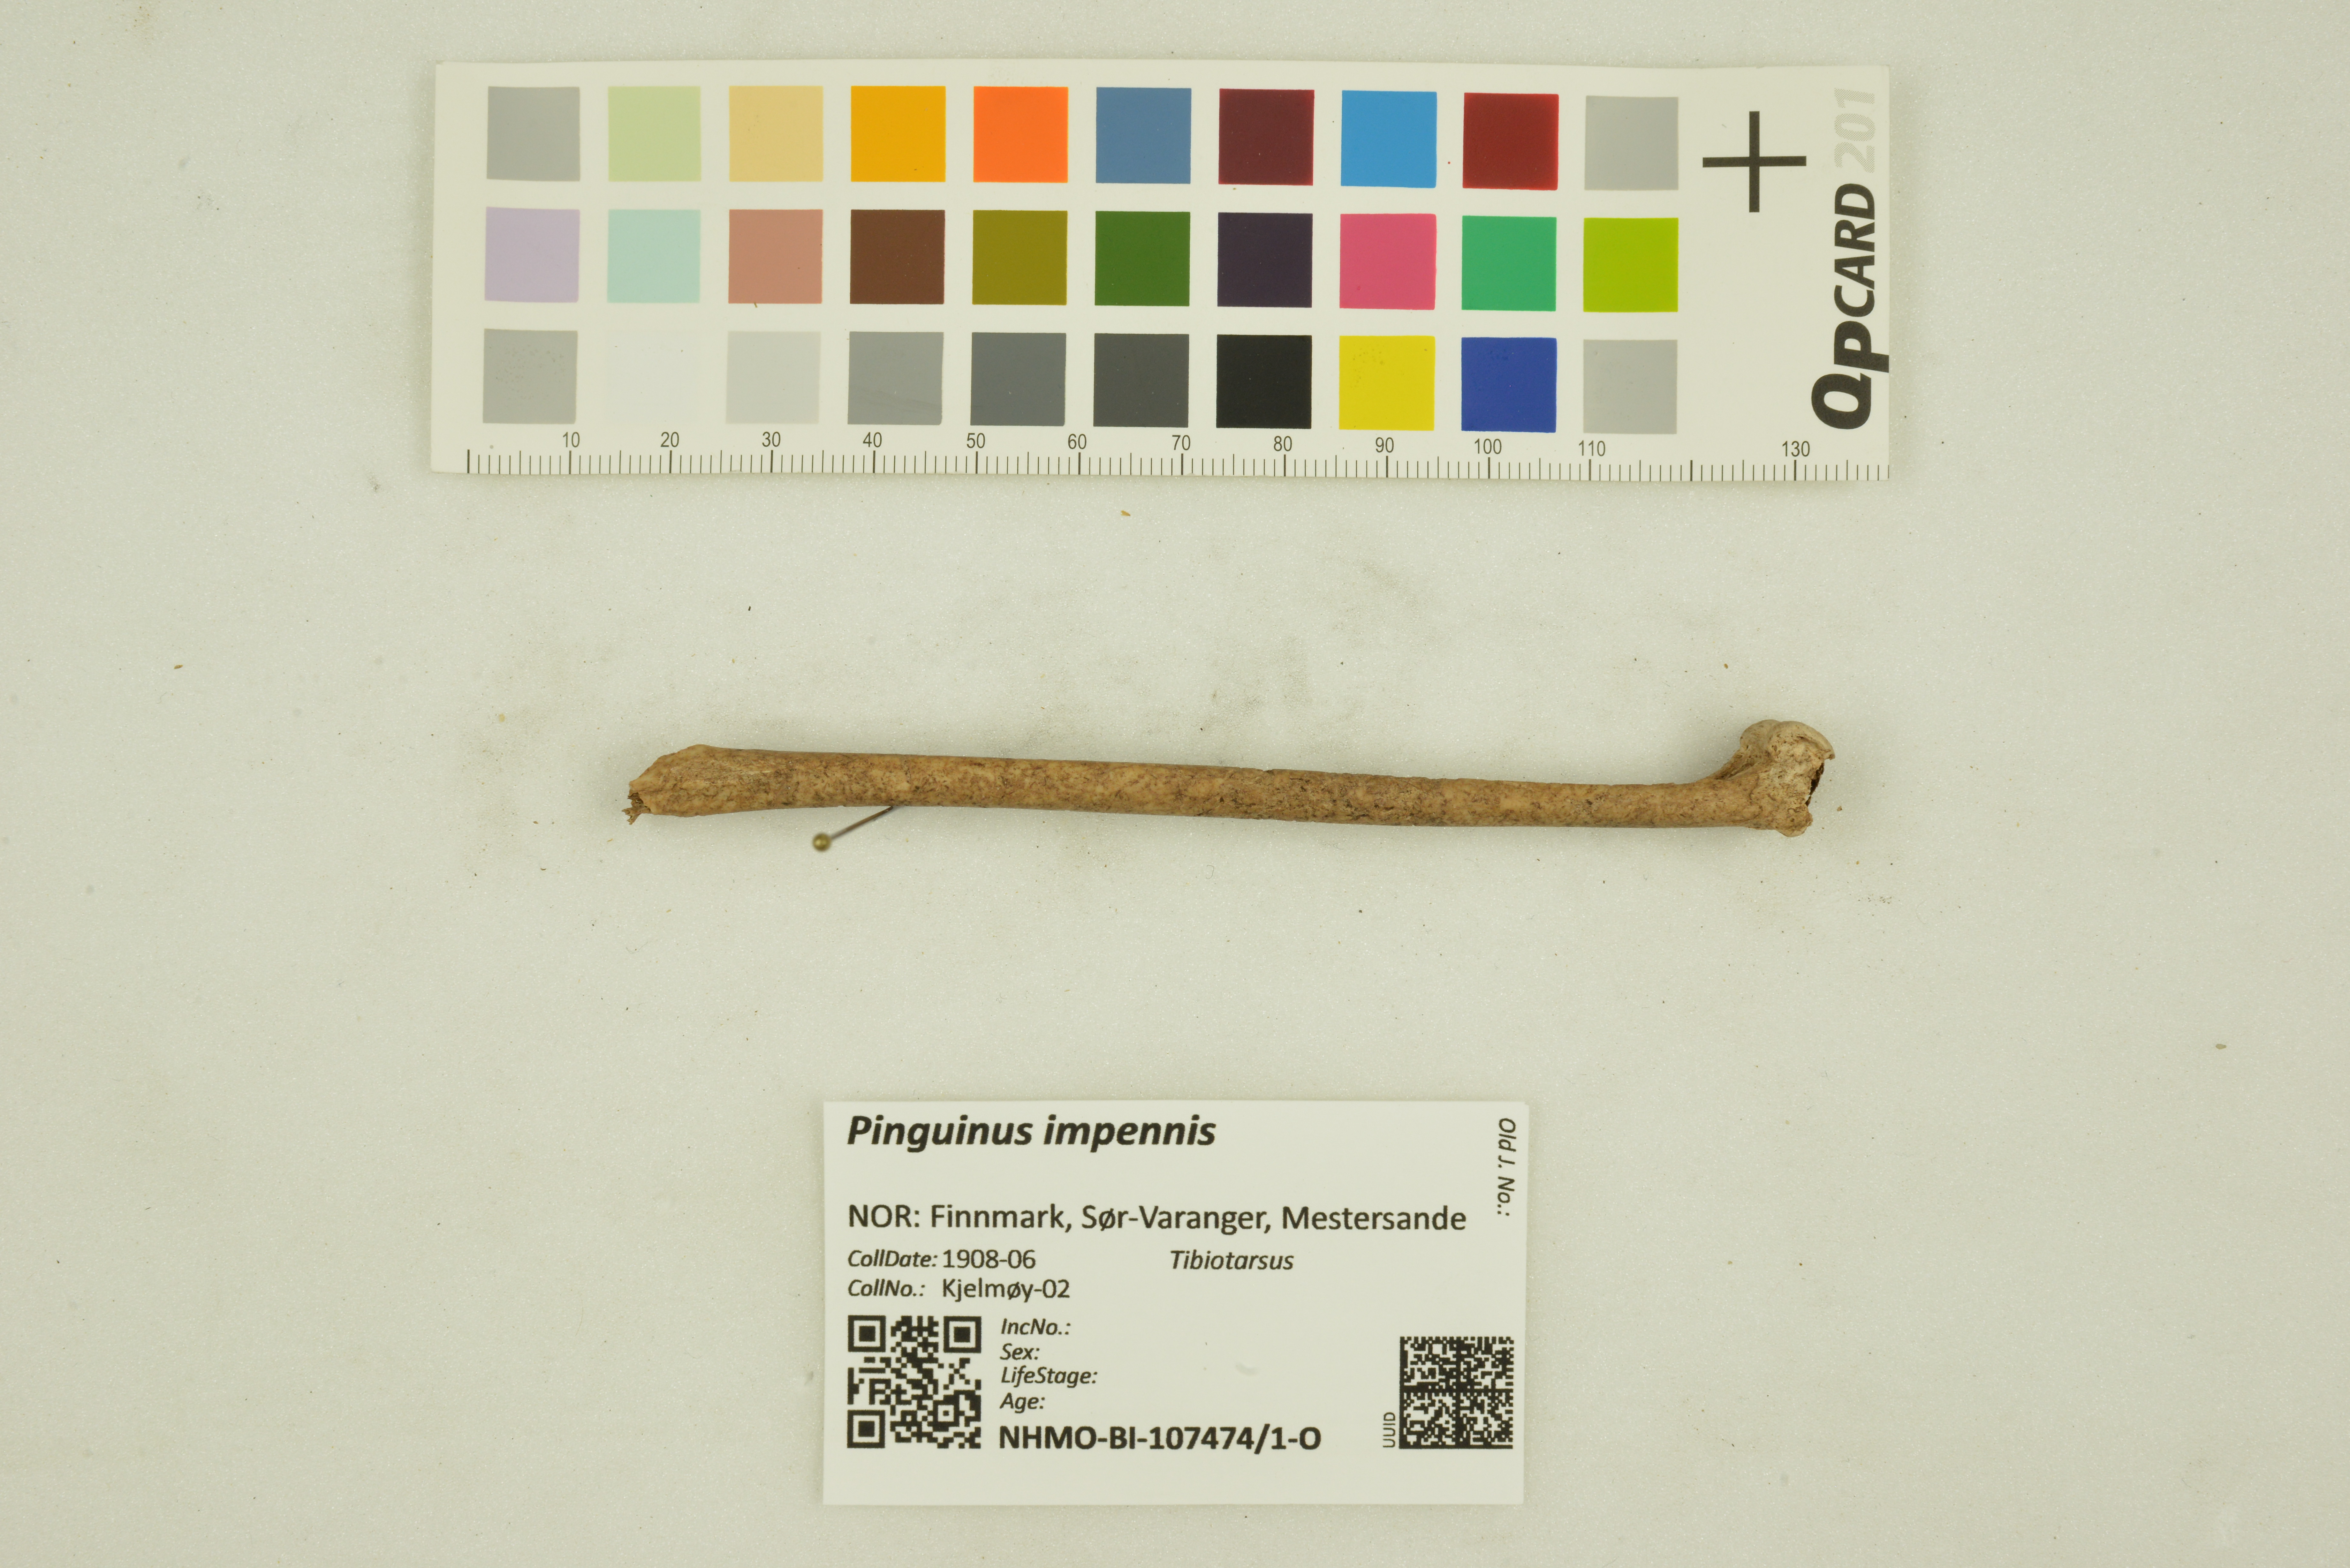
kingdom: Animalia
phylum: Chordata
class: Aves
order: Charadriiformes
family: Alcidae
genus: Pinguinus
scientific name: Pinguinus impennis
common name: Great auk
